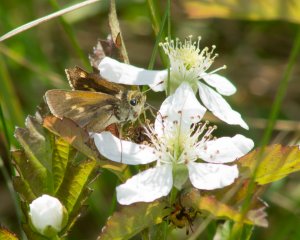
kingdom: Animalia
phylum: Arthropoda
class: Insecta
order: Lepidoptera
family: Hesperiidae
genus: Atalopedes
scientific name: Atalopedes campestris
